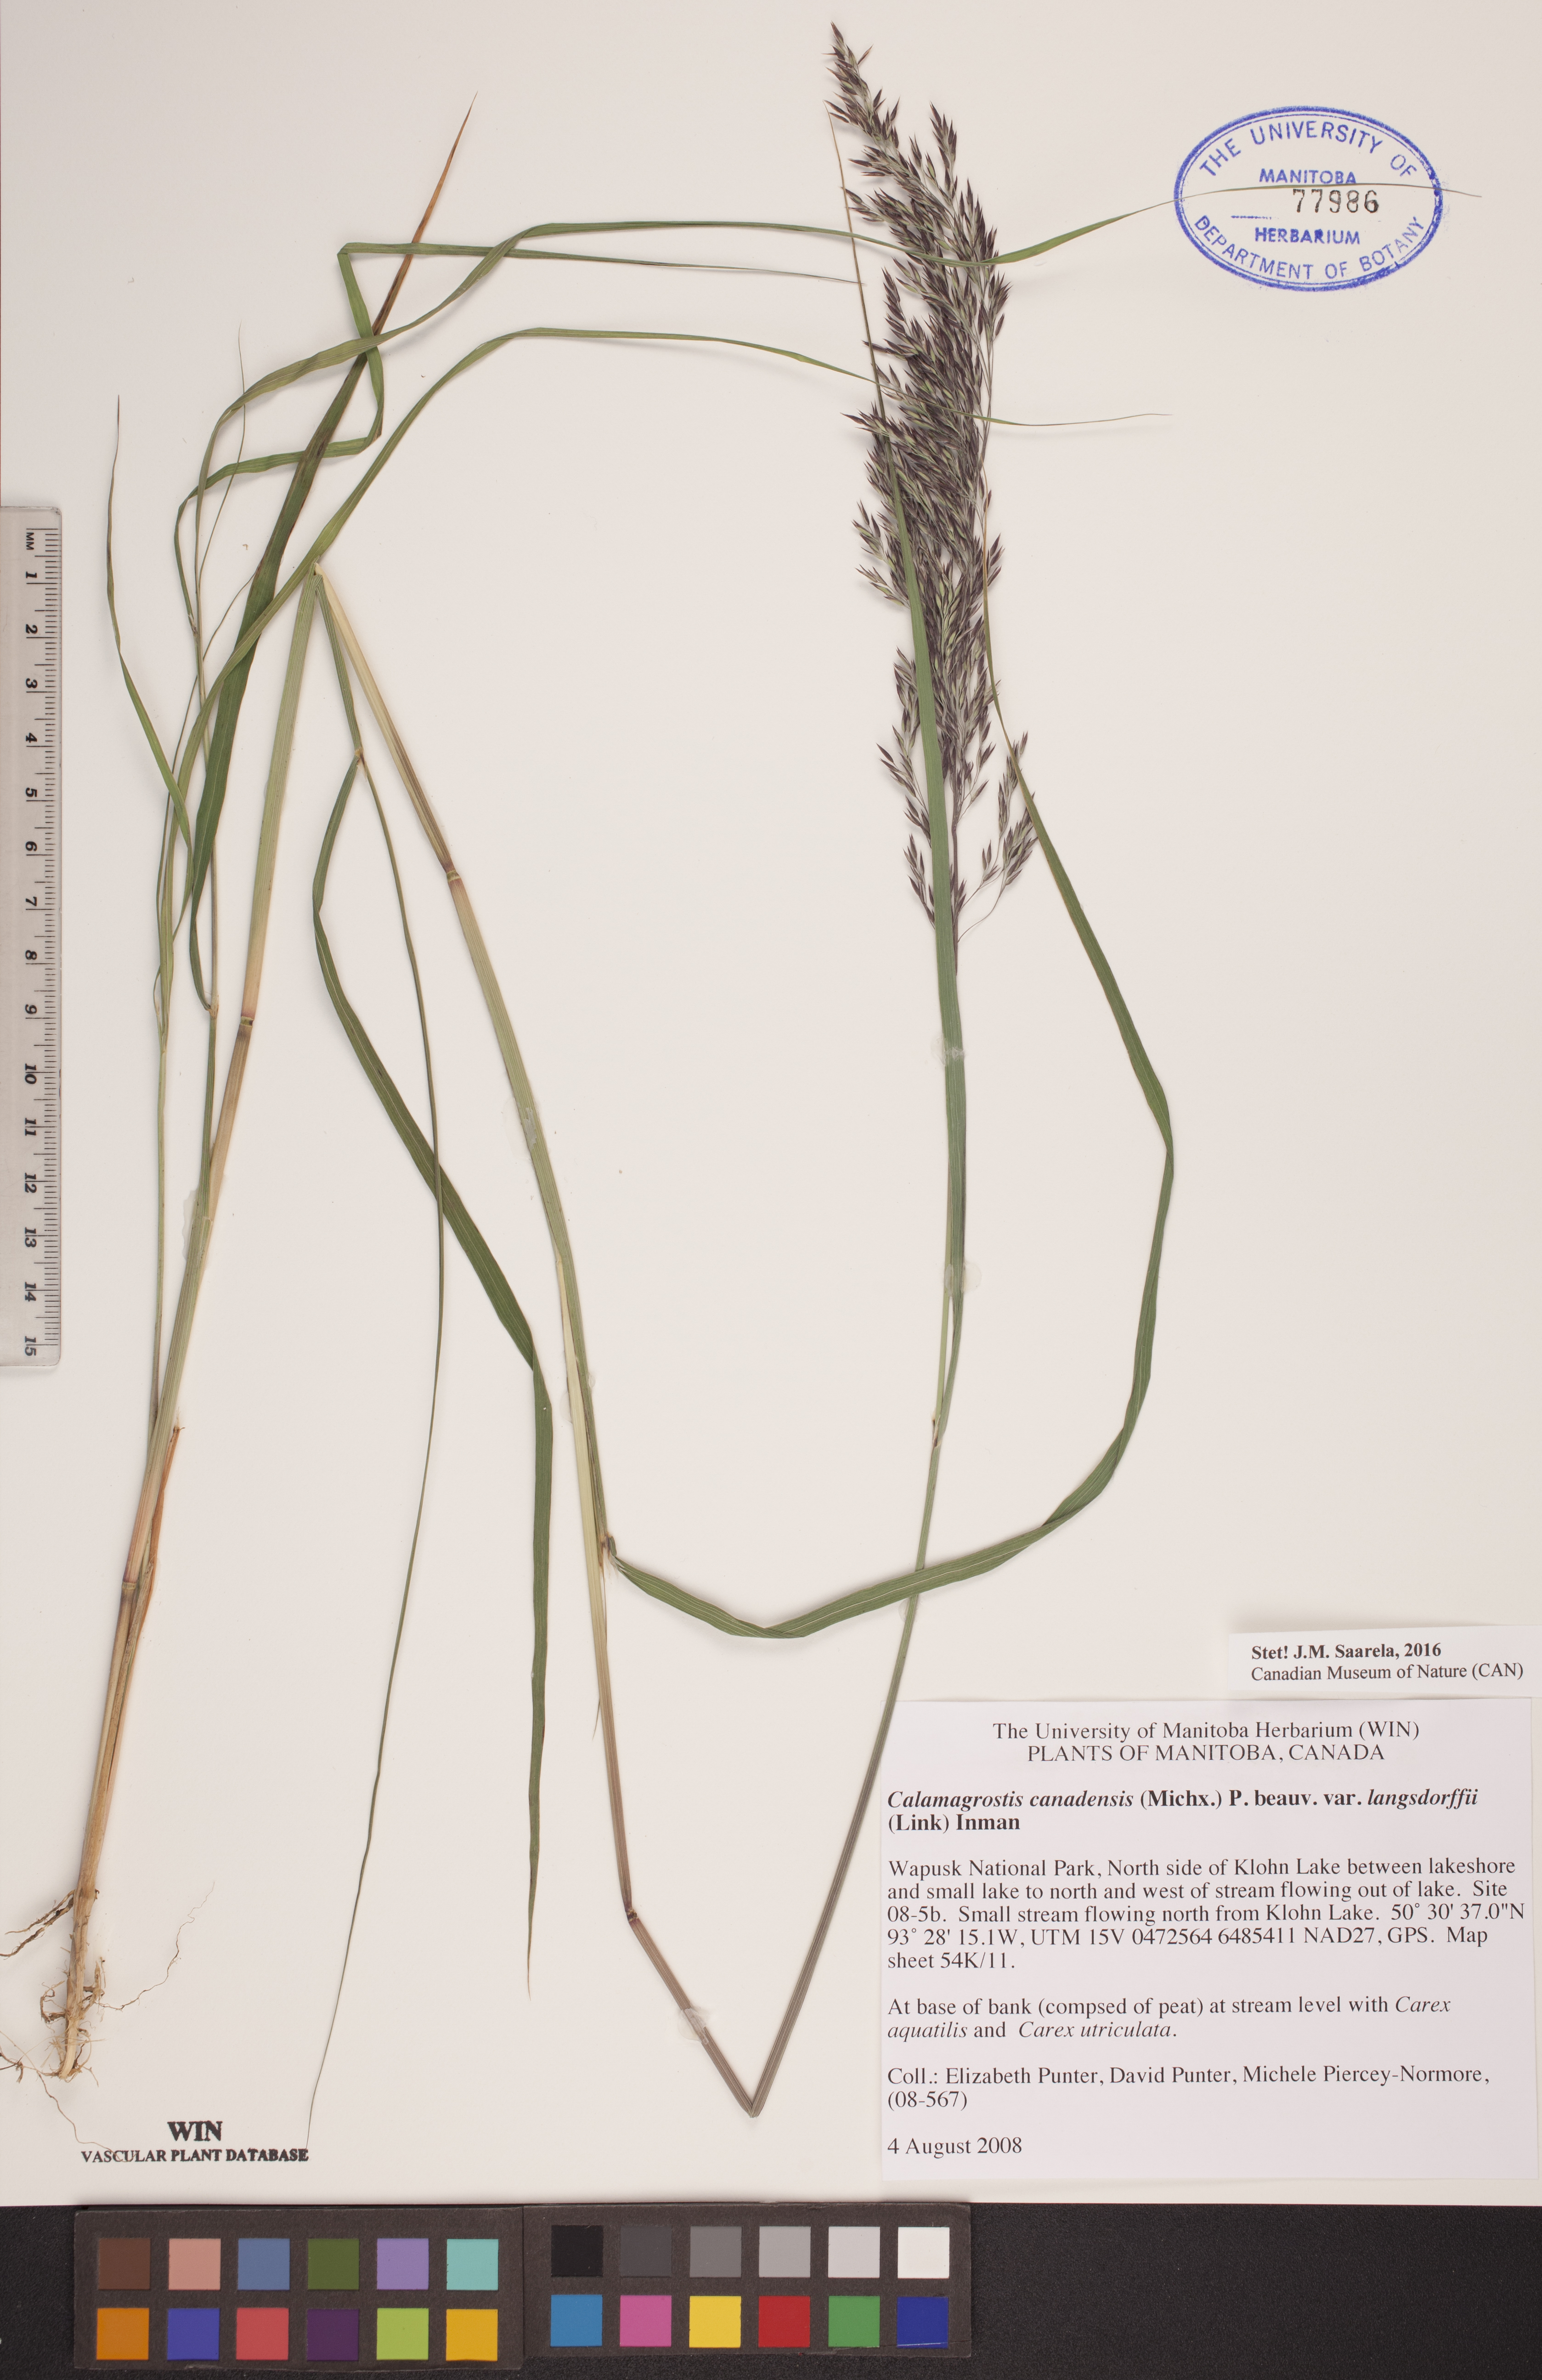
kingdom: Plantae
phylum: Tracheophyta
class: Liliopsida
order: Poales
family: Poaceae
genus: Calamagrostis
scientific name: Calamagrostis purpurea
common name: Scandinavian small-reed
